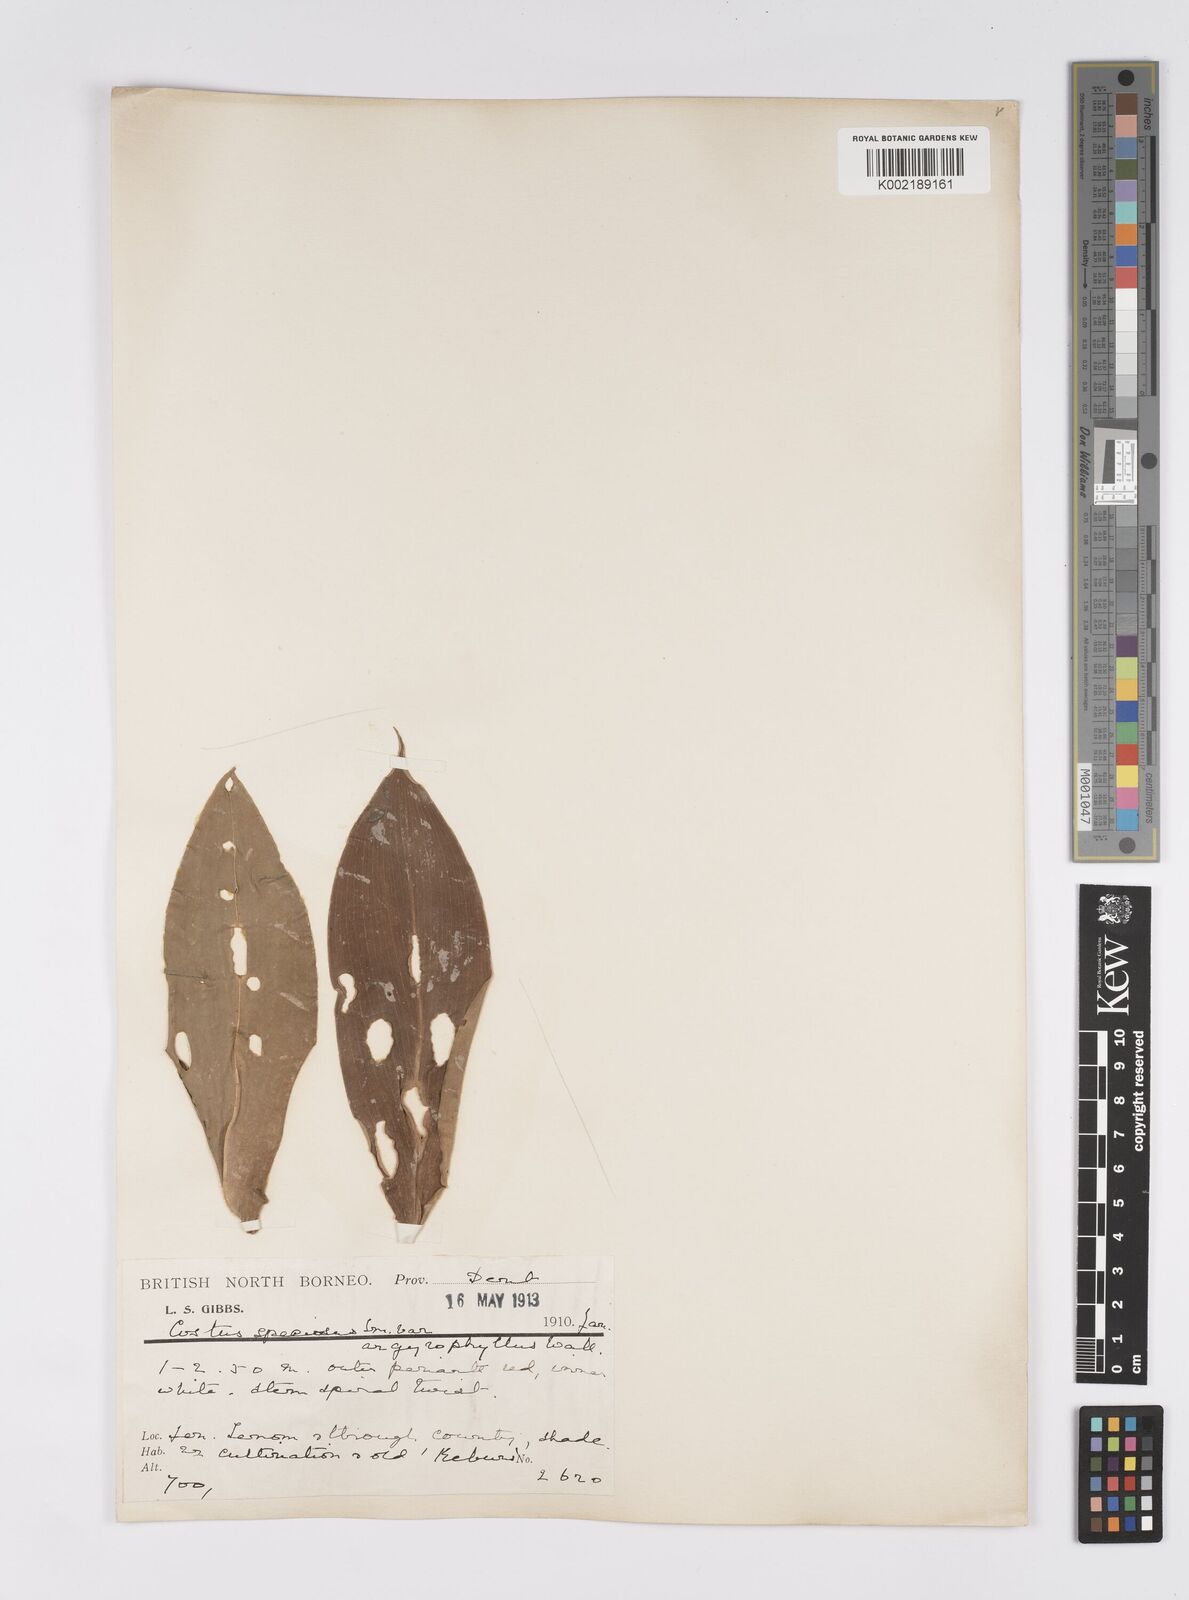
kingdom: Plantae
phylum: Tracheophyta
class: Liliopsida
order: Zingiberales
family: Costaceae
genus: Hellenia
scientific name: Hellenia speciosa
